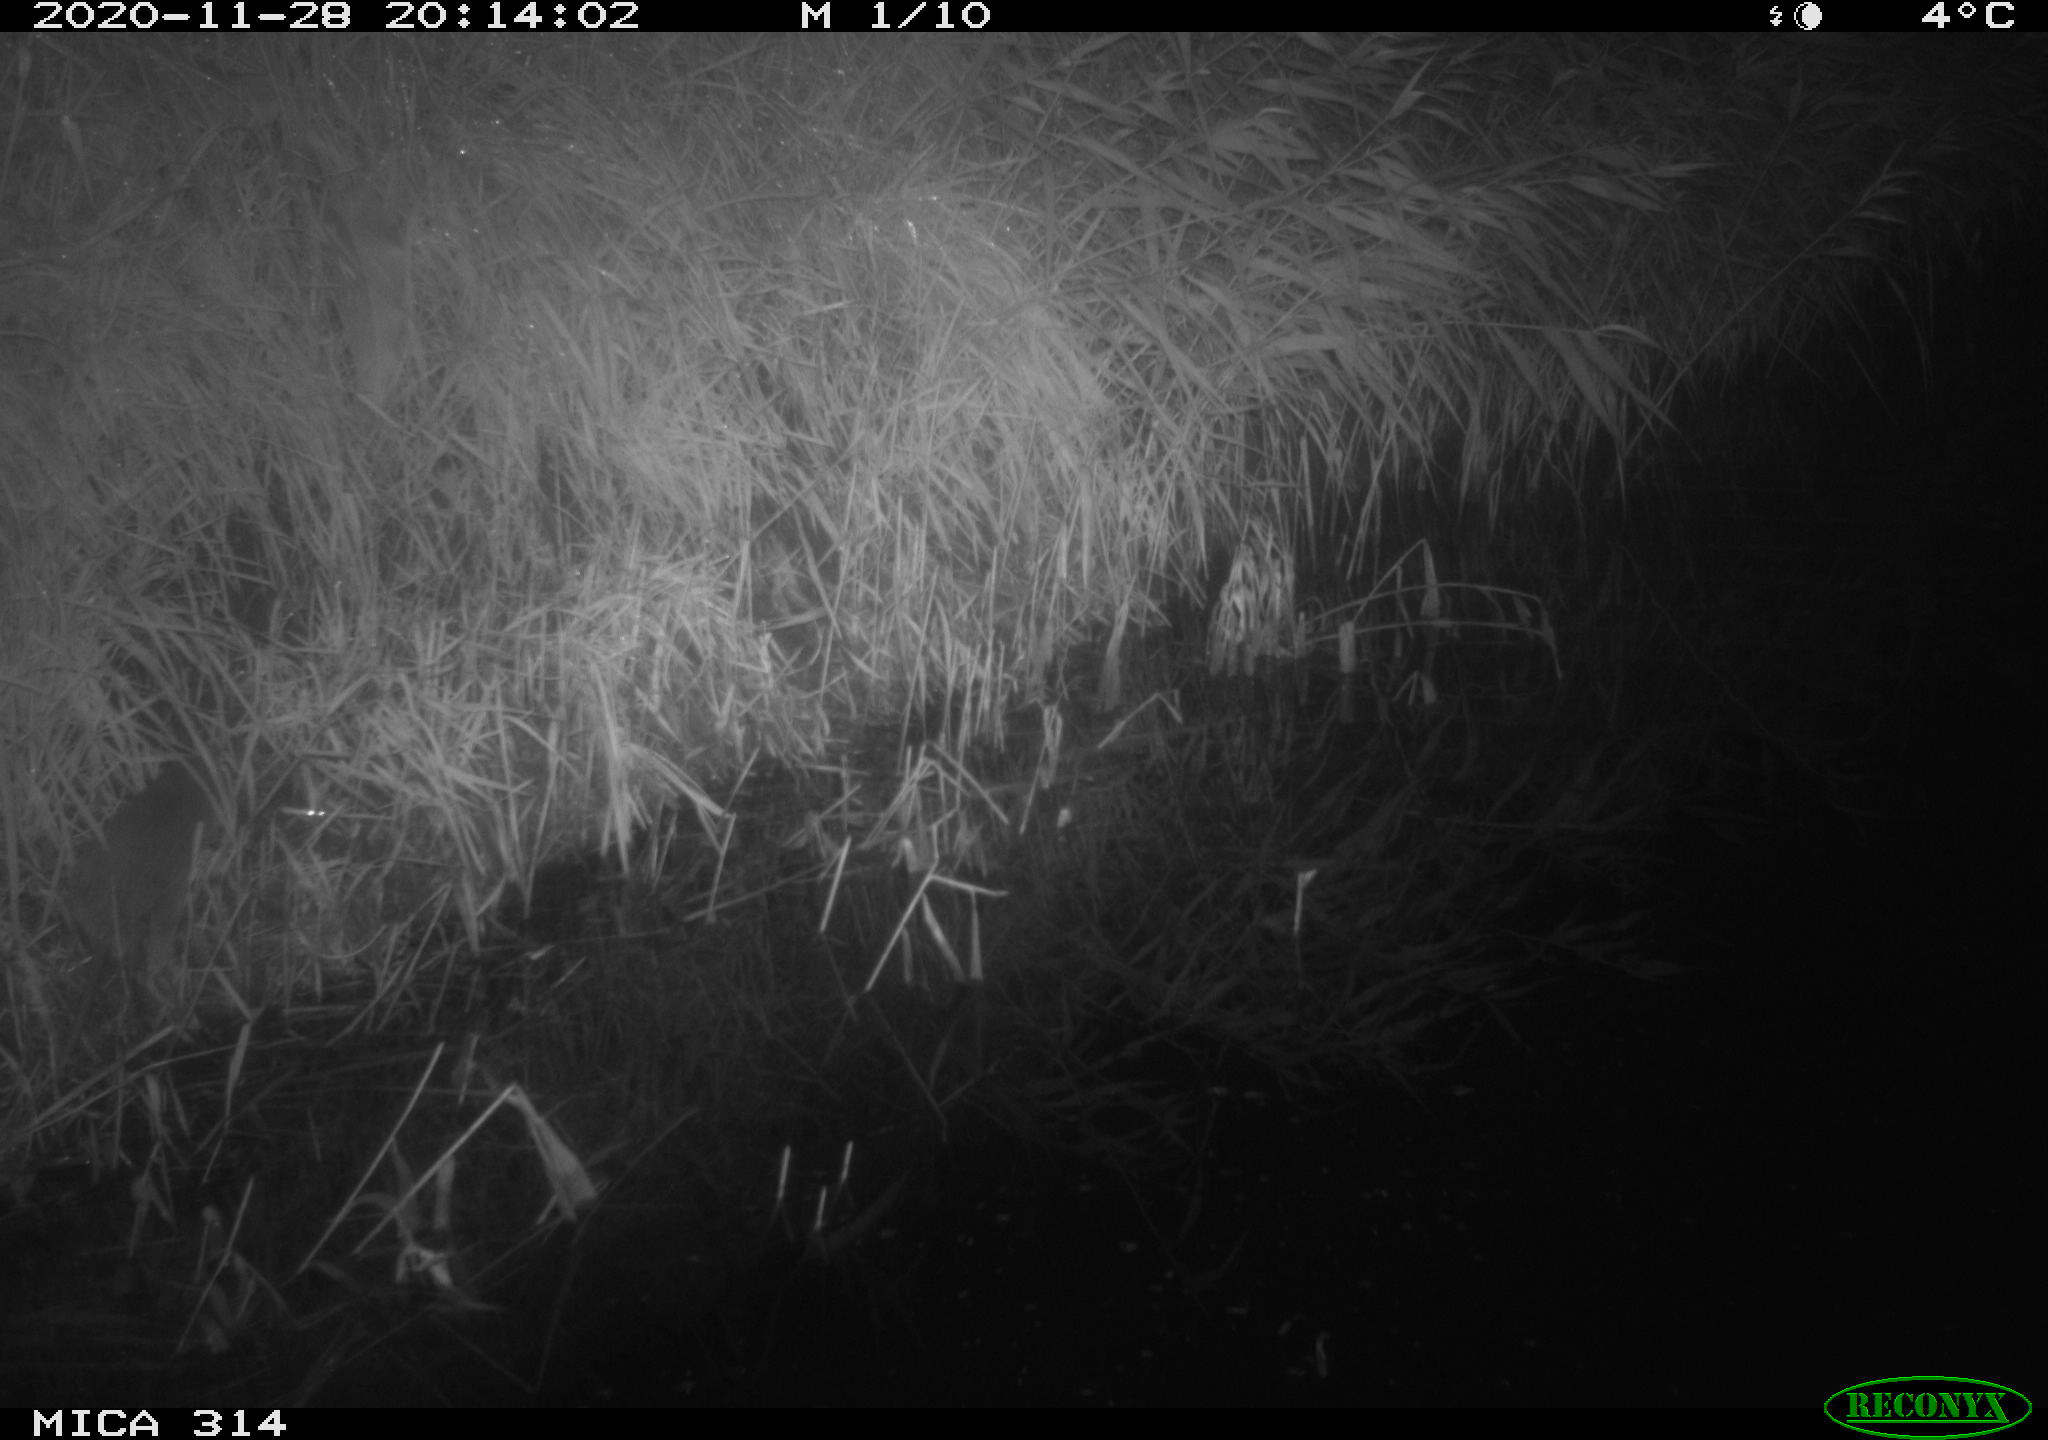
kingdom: Animalia
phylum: Chordata
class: Mammalia
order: Rodentia
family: Muridae
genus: Rattus
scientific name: Rattus norvegicus
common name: Brown rat
